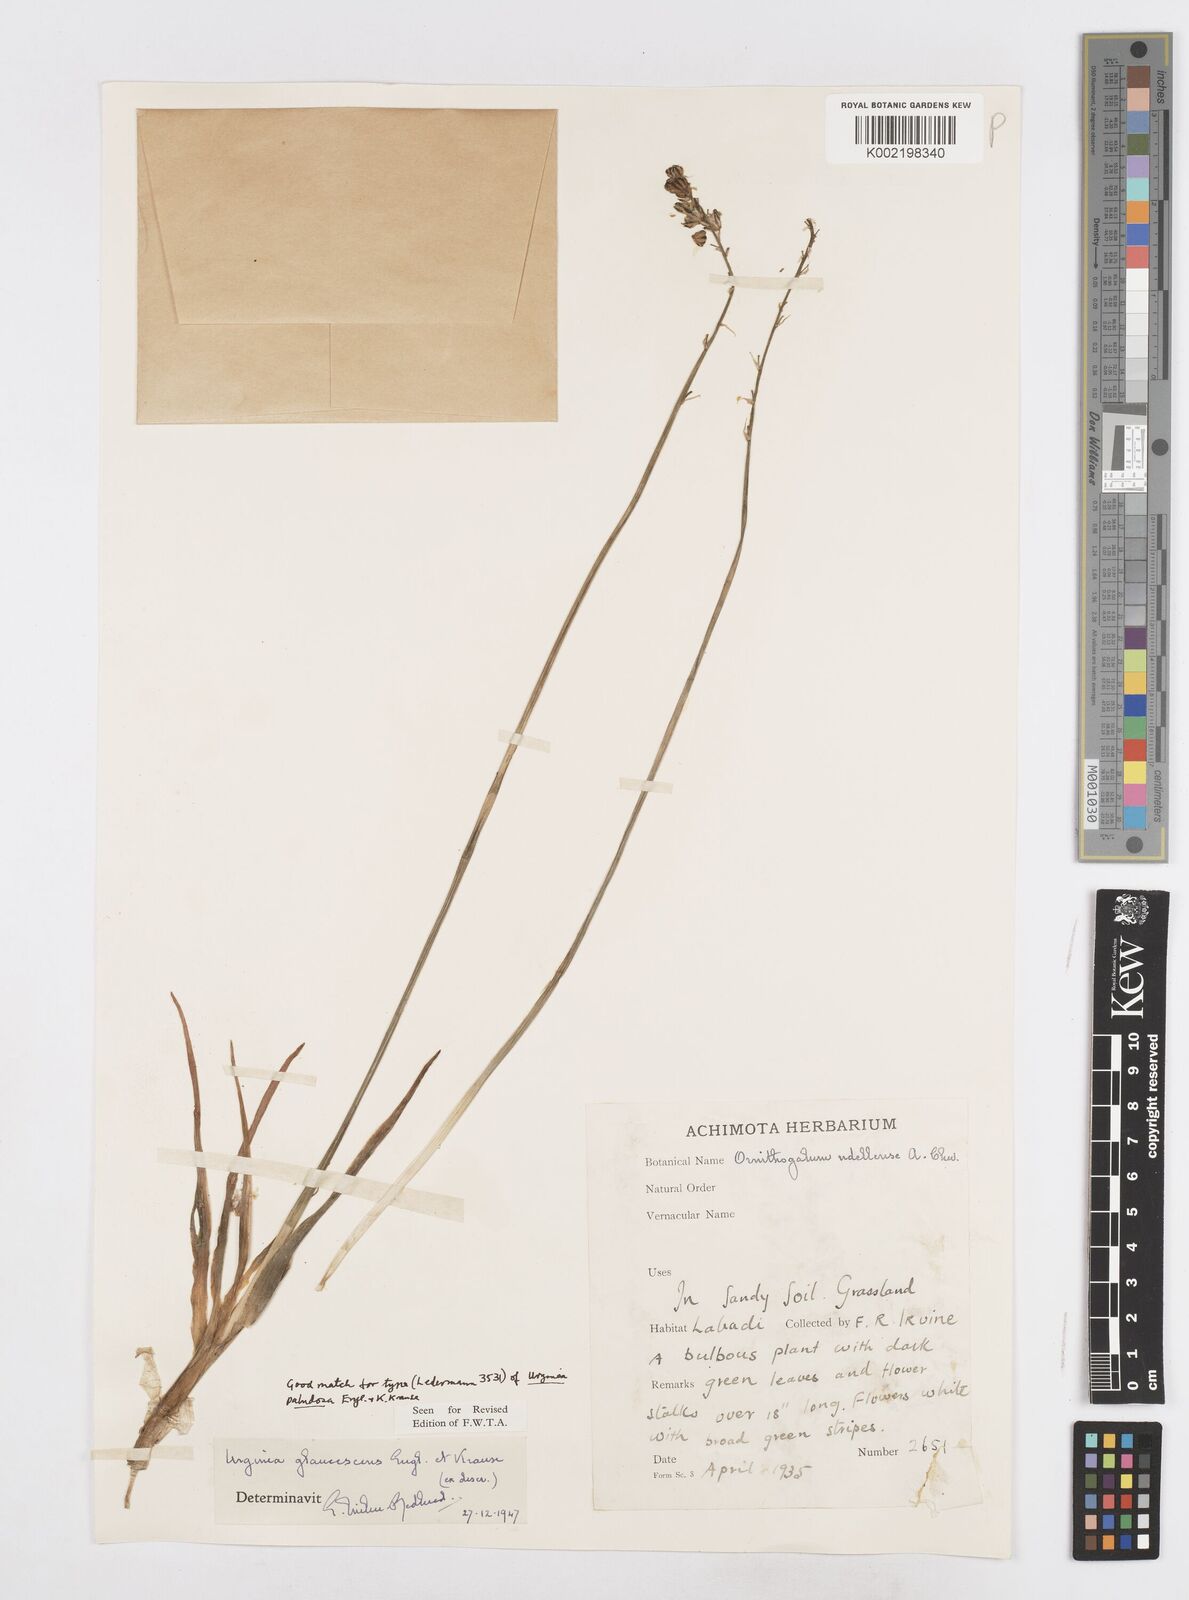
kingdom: Plantae
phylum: Tracheophyta
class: Liliopsida
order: Asparagales
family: Asparagaceae
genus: Ledebouria
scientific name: Ledebouria ensifolia
